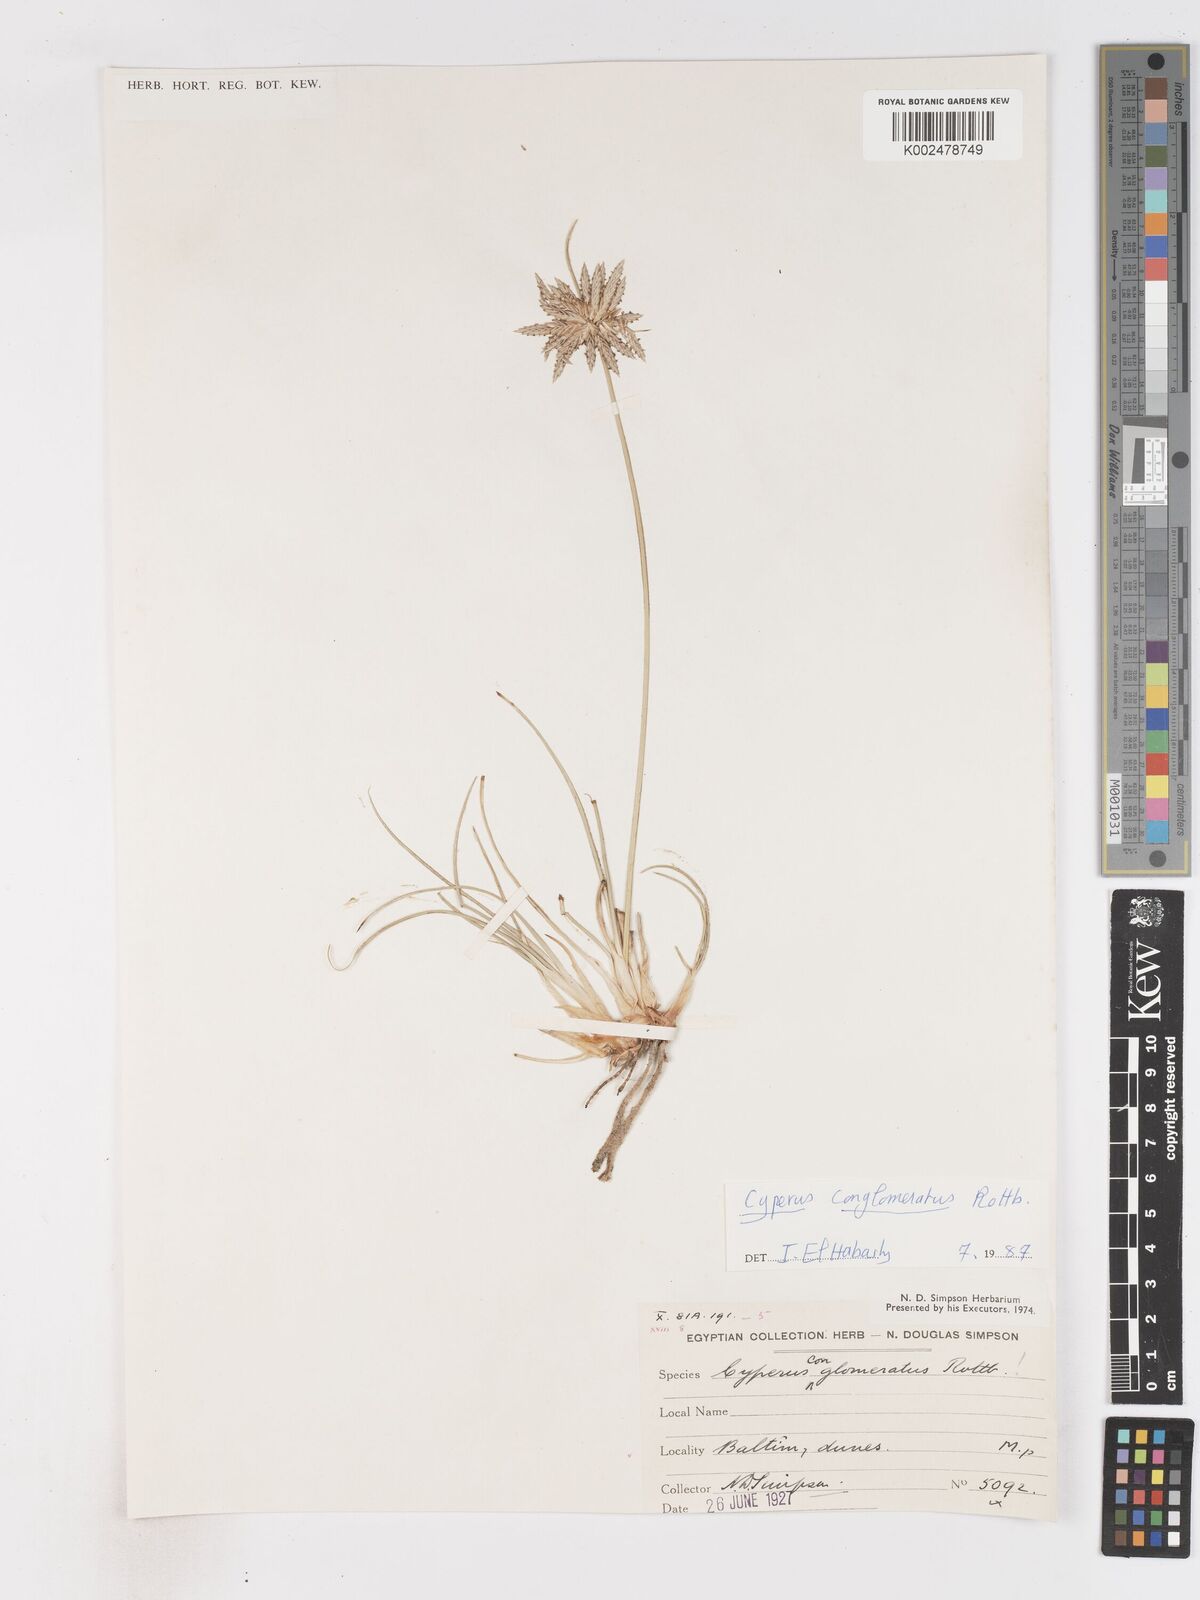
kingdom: Plantae
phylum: Tracheophyta
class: Liliopsida
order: Poales
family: Cyperaceae
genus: Cyperus
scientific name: Cyperus conglomeratus
